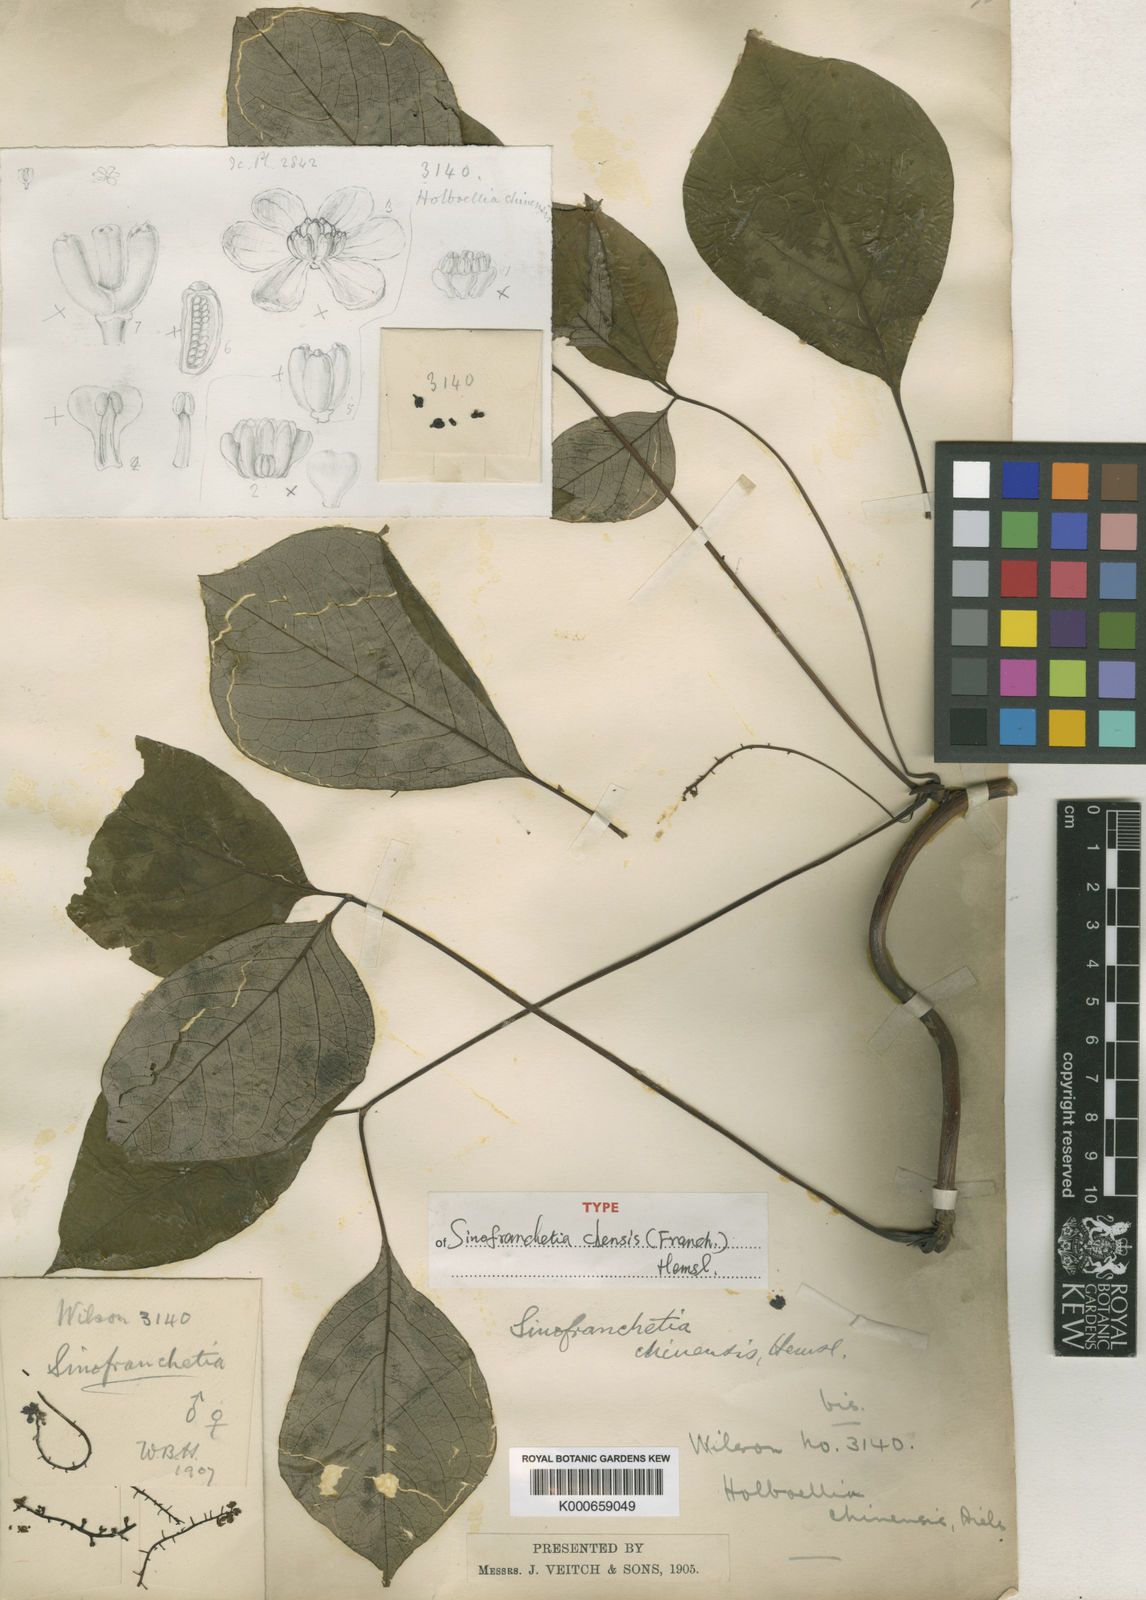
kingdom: Plantae
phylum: Tracheophyta
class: Magnoliopsida
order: Ranunculales
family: Lardizabalaceae
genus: Sinofranchetia
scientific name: Sinofranchetia chinensis
